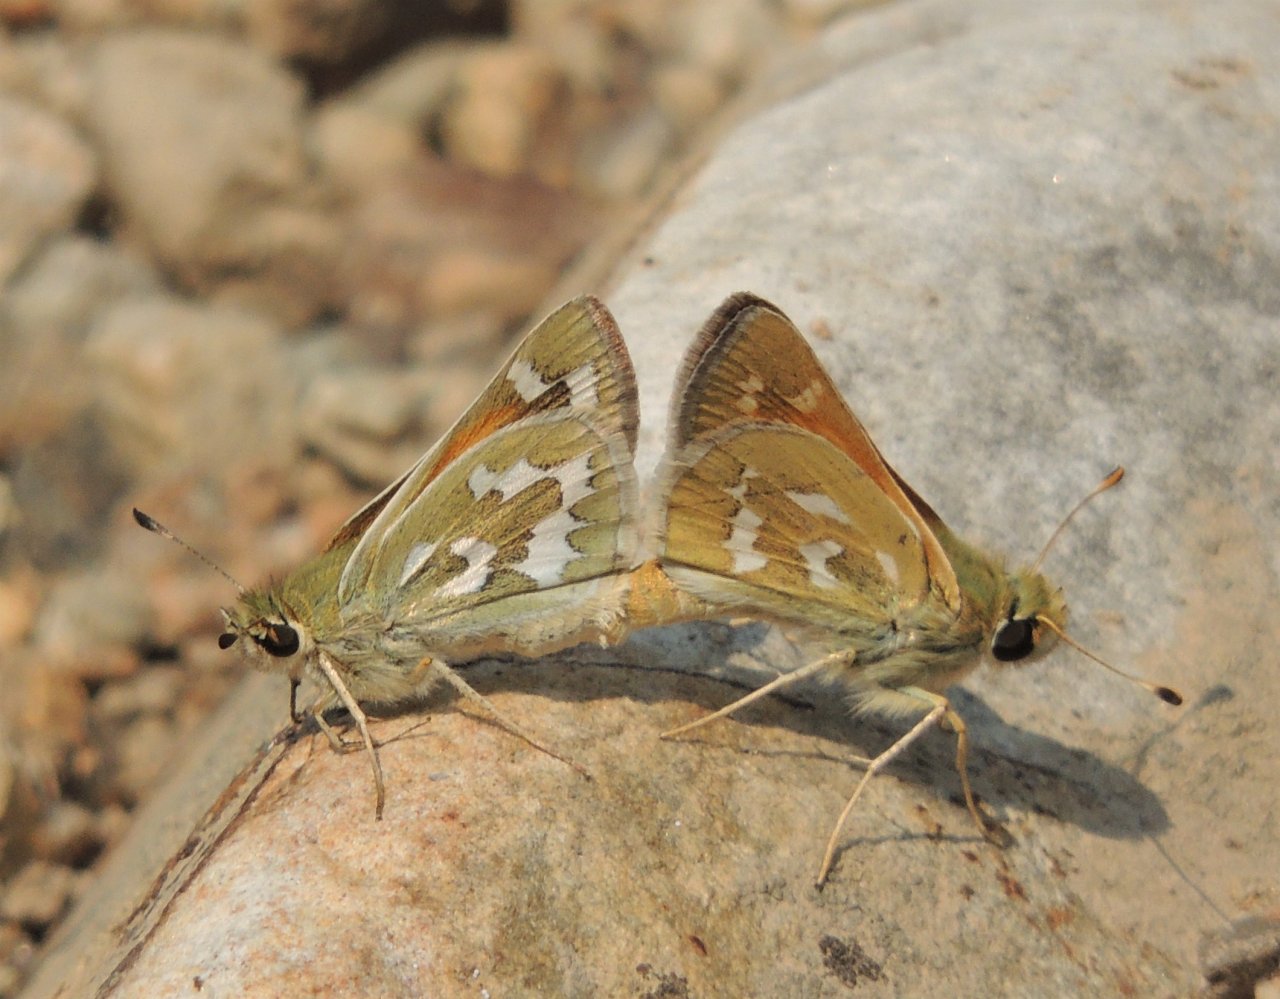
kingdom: Animalia
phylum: Arthropoda
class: Insecta
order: Lepidoptera
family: Hesperiidae
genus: Hesperia
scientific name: Hesperia comma
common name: Western Branded Skipper
